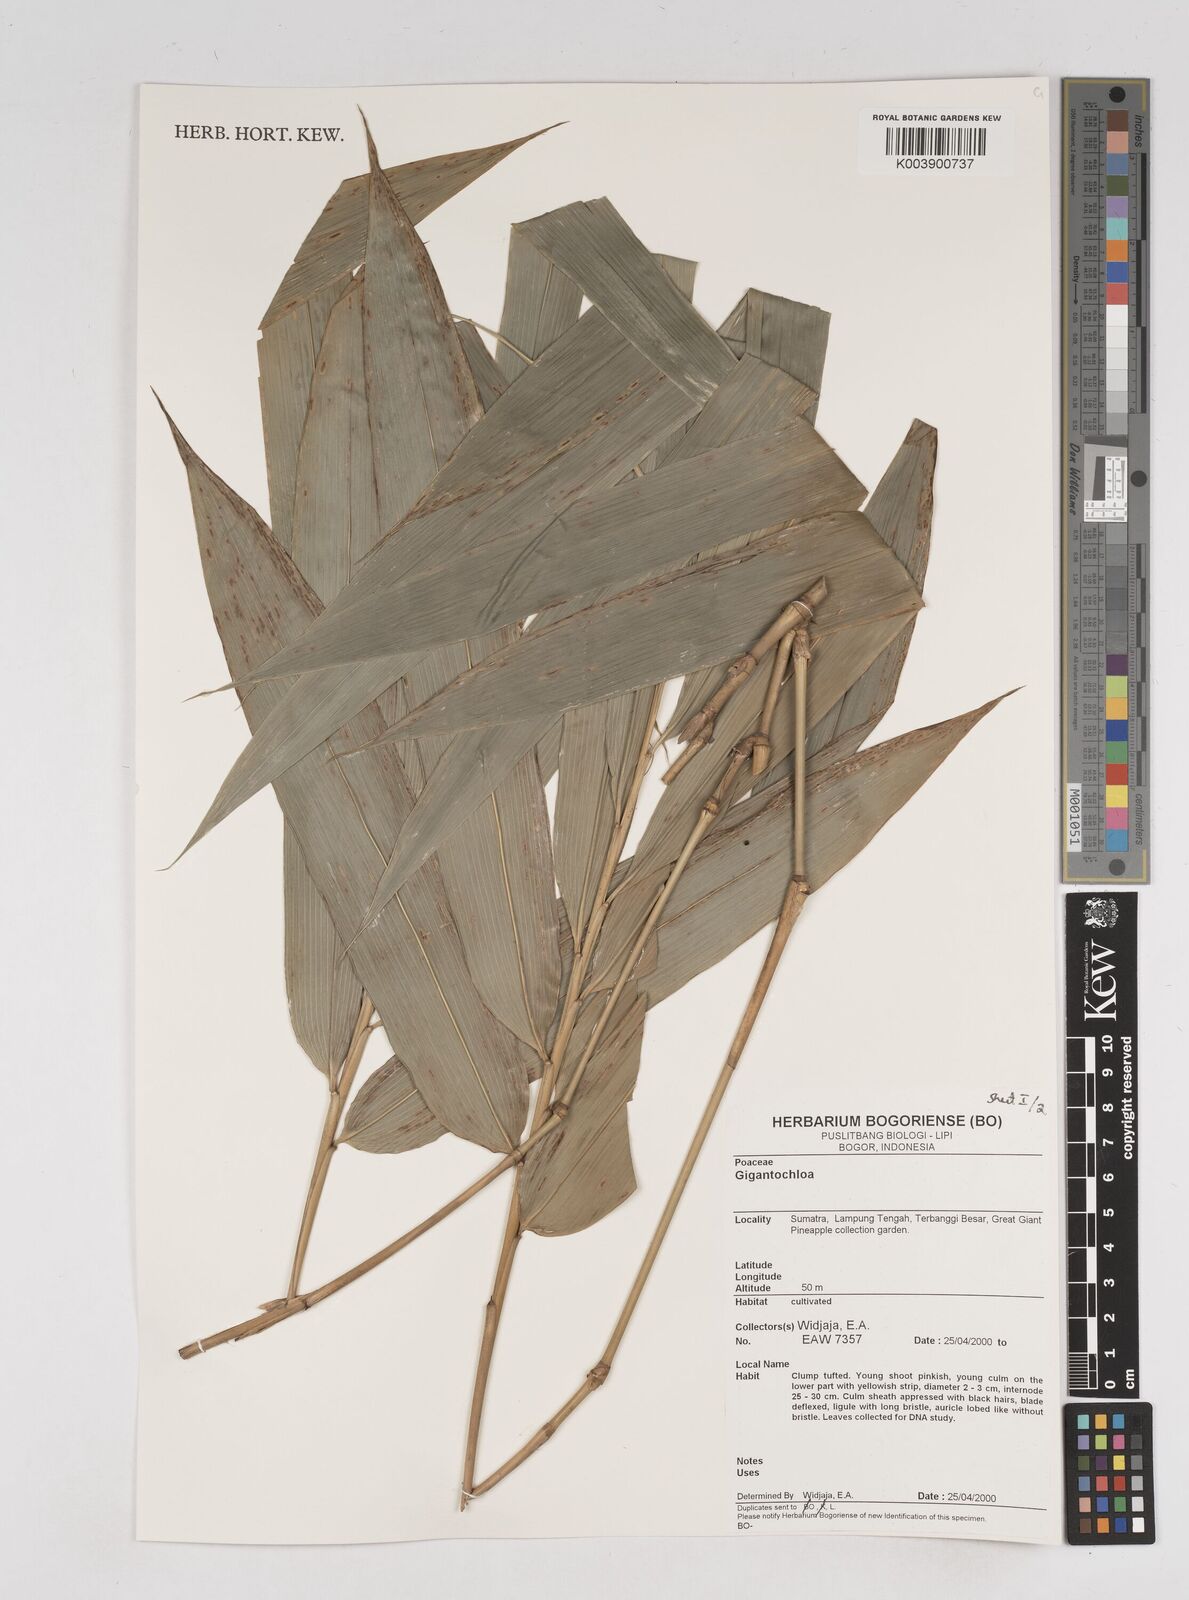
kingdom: Plantae
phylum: Tracheophyta
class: Liliopsida
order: Poales
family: Poaceae
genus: Gigantochloa
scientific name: Gigantochloa
